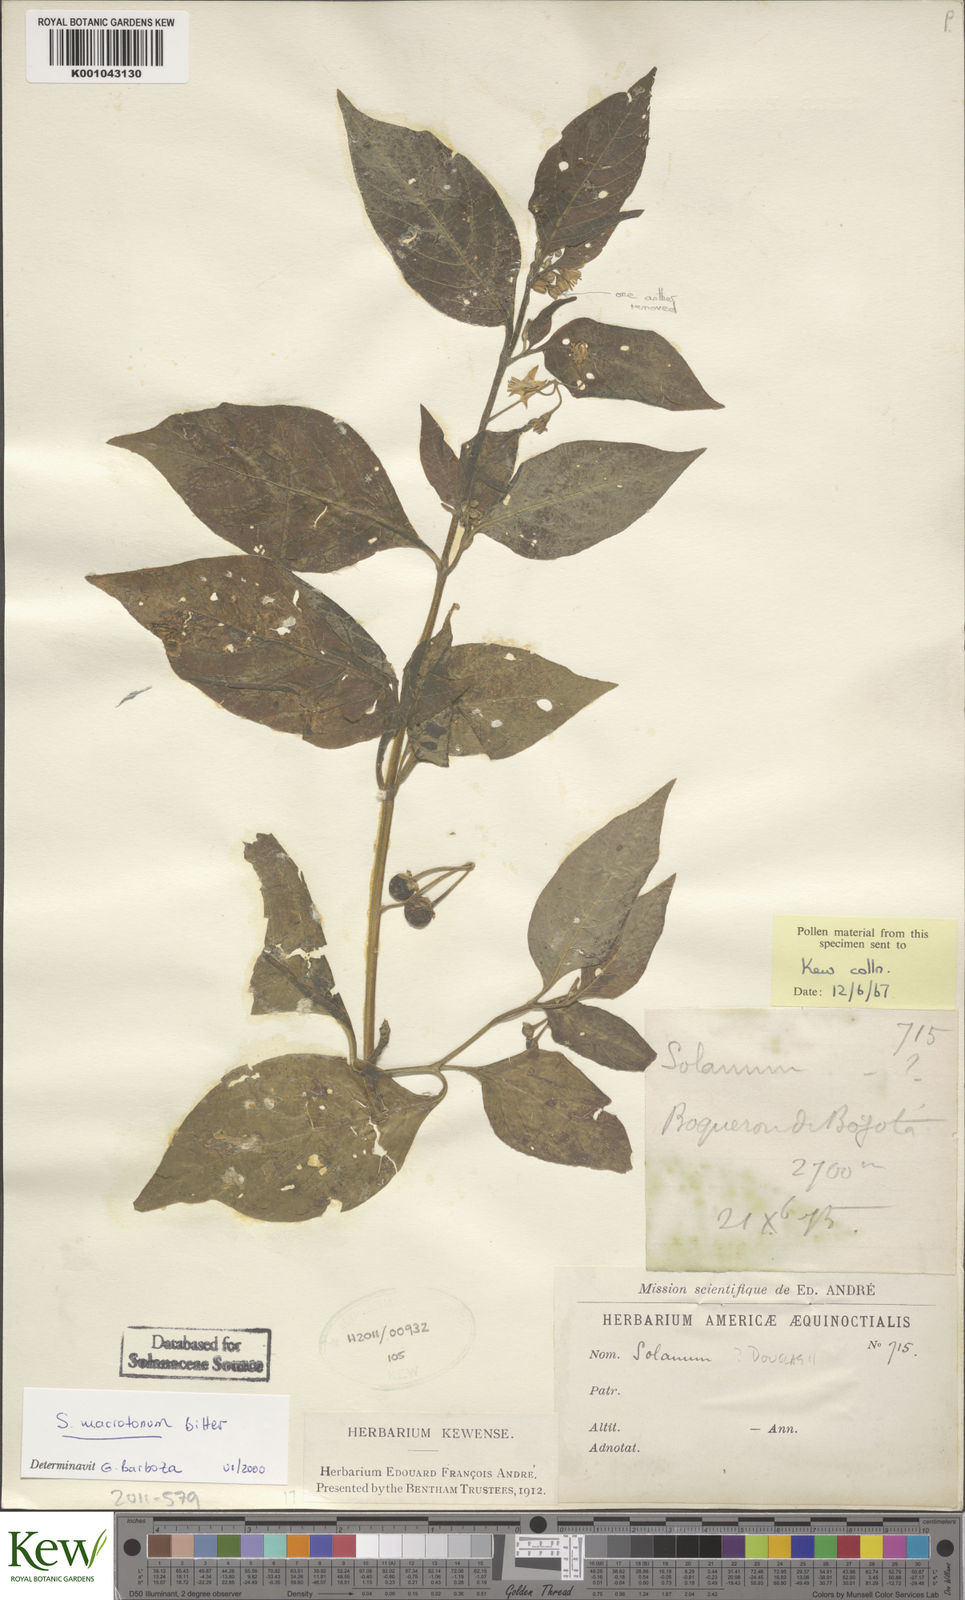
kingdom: Plantae
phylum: Tracheophyta
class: Magnoliopsida
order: Solanales
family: Solanaceae
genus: Solanum
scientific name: Solanum macrotonum
